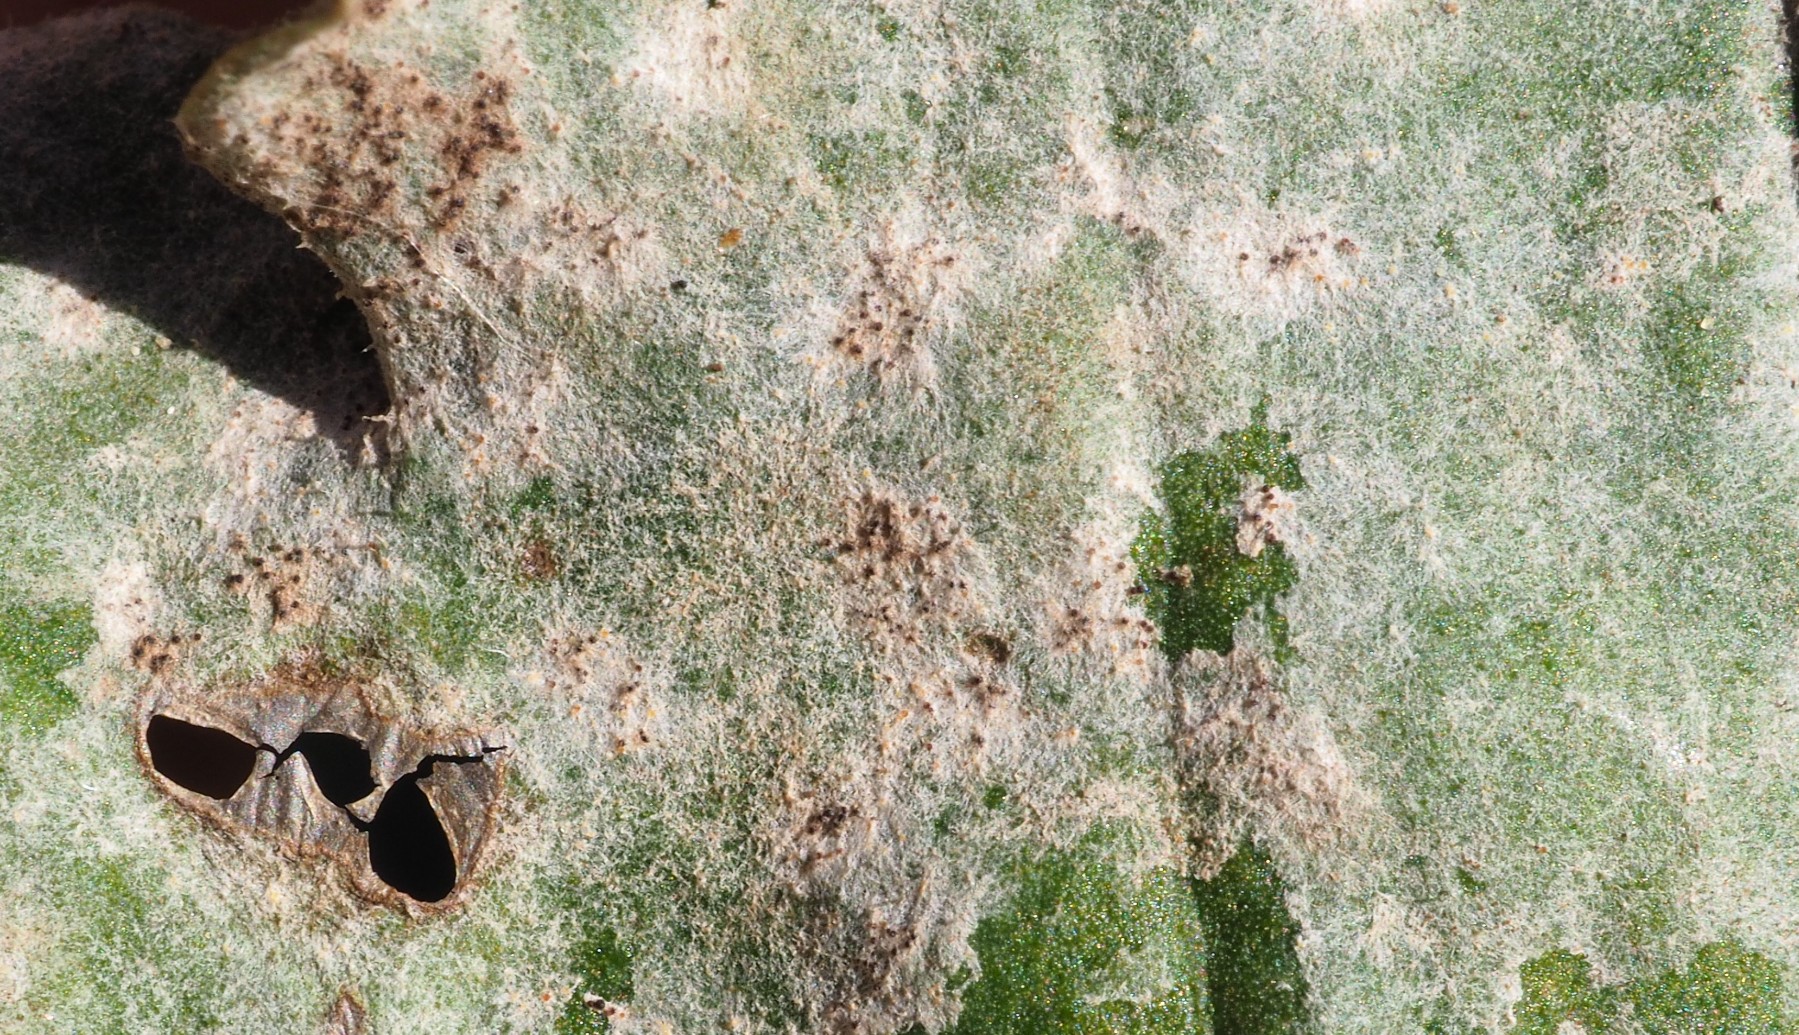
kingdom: Fungi
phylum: Ascomycota
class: Leotiomycetes
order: Helotiales
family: Erysiphaceae
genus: Golovinomyces
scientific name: Golovinomyces sordidus
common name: Plantain mildew
